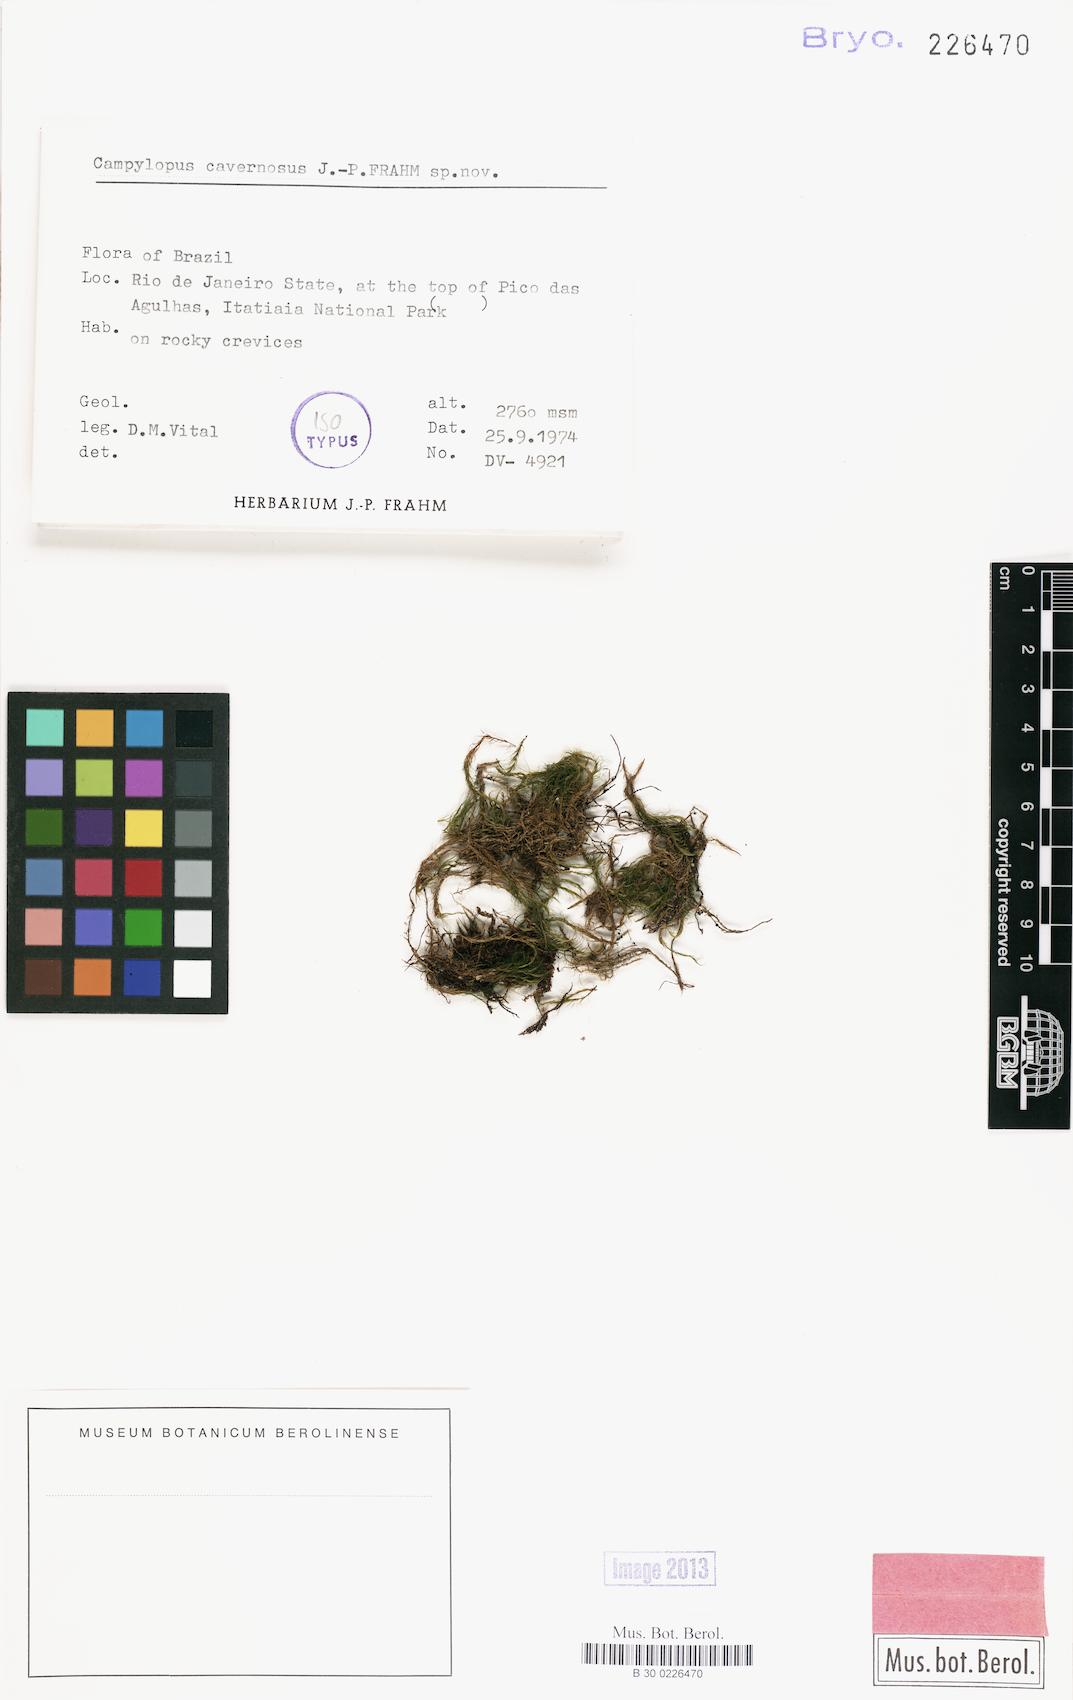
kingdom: Plantae
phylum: Bryophyta
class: Bryopsida
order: Dicranales
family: Leucobryaceae
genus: Campylopus
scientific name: Campylopus densicoma
